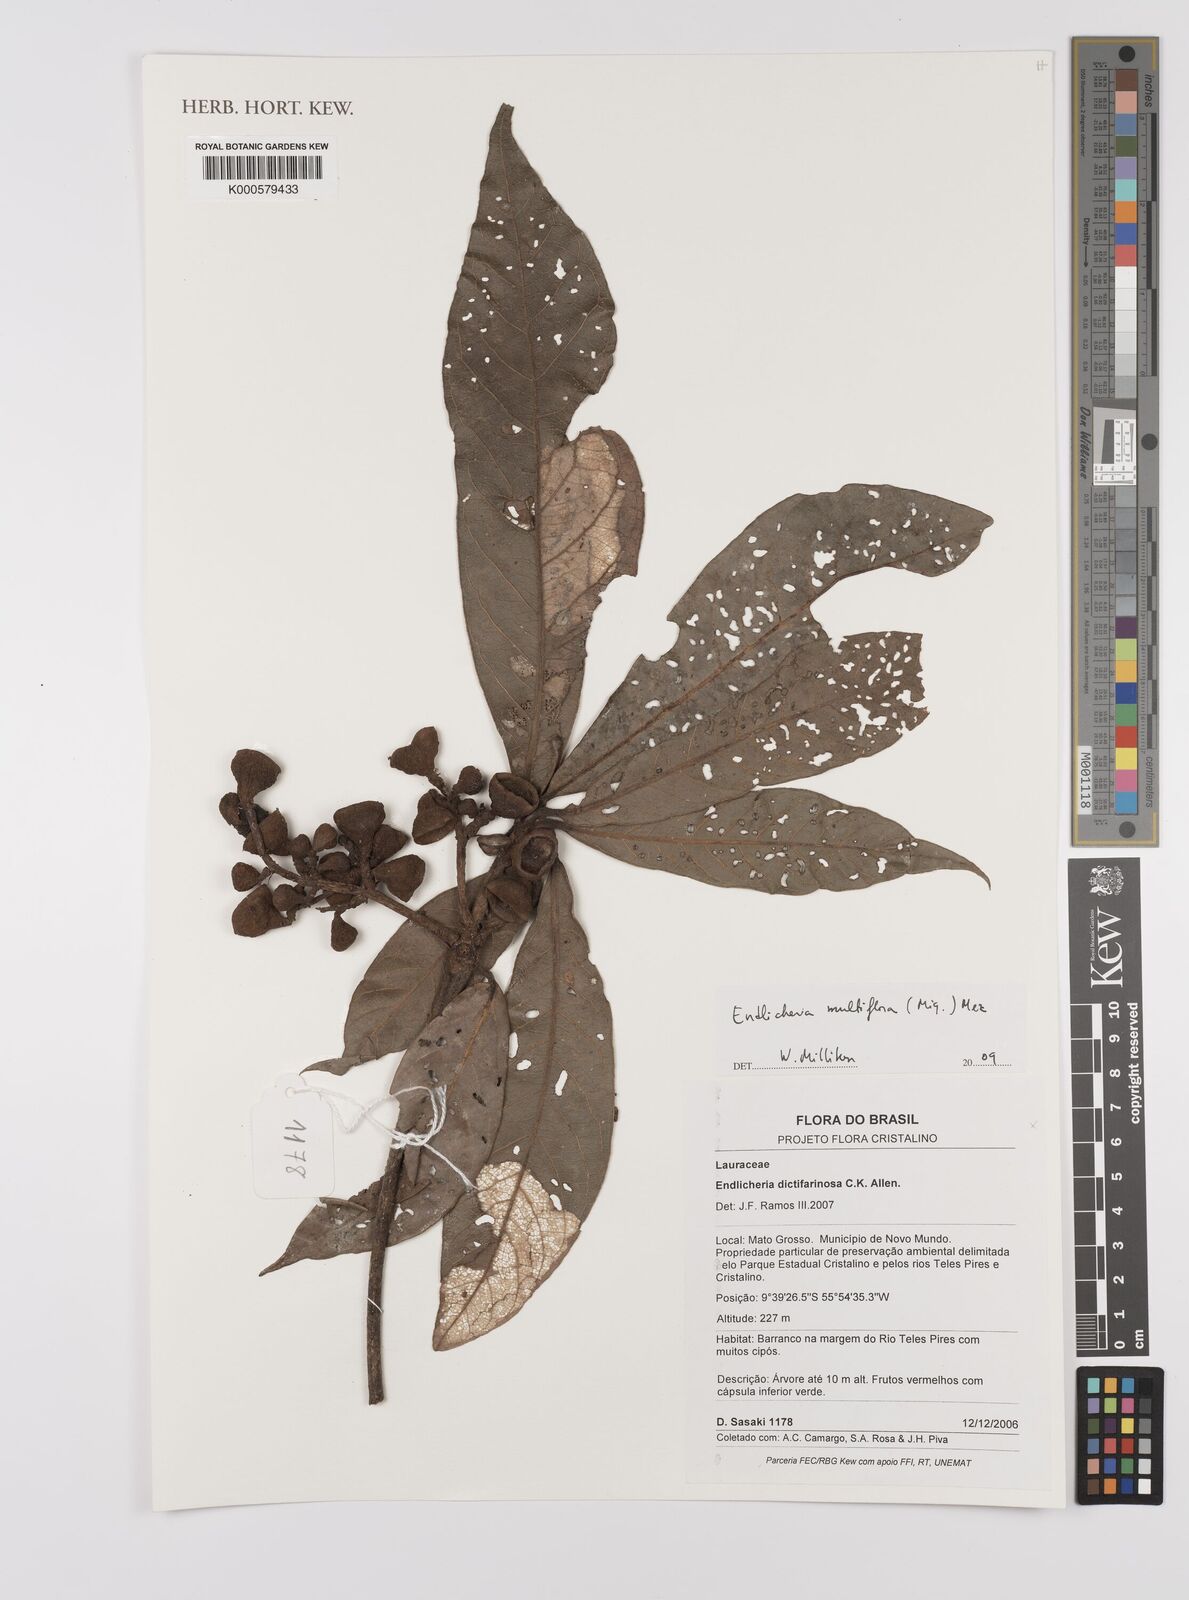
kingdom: Plantae
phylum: Tracheophyta
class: Magnoliopsida
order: Laurales
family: Lauraceae
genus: Endlicheria
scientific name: Endlicheria levelii
